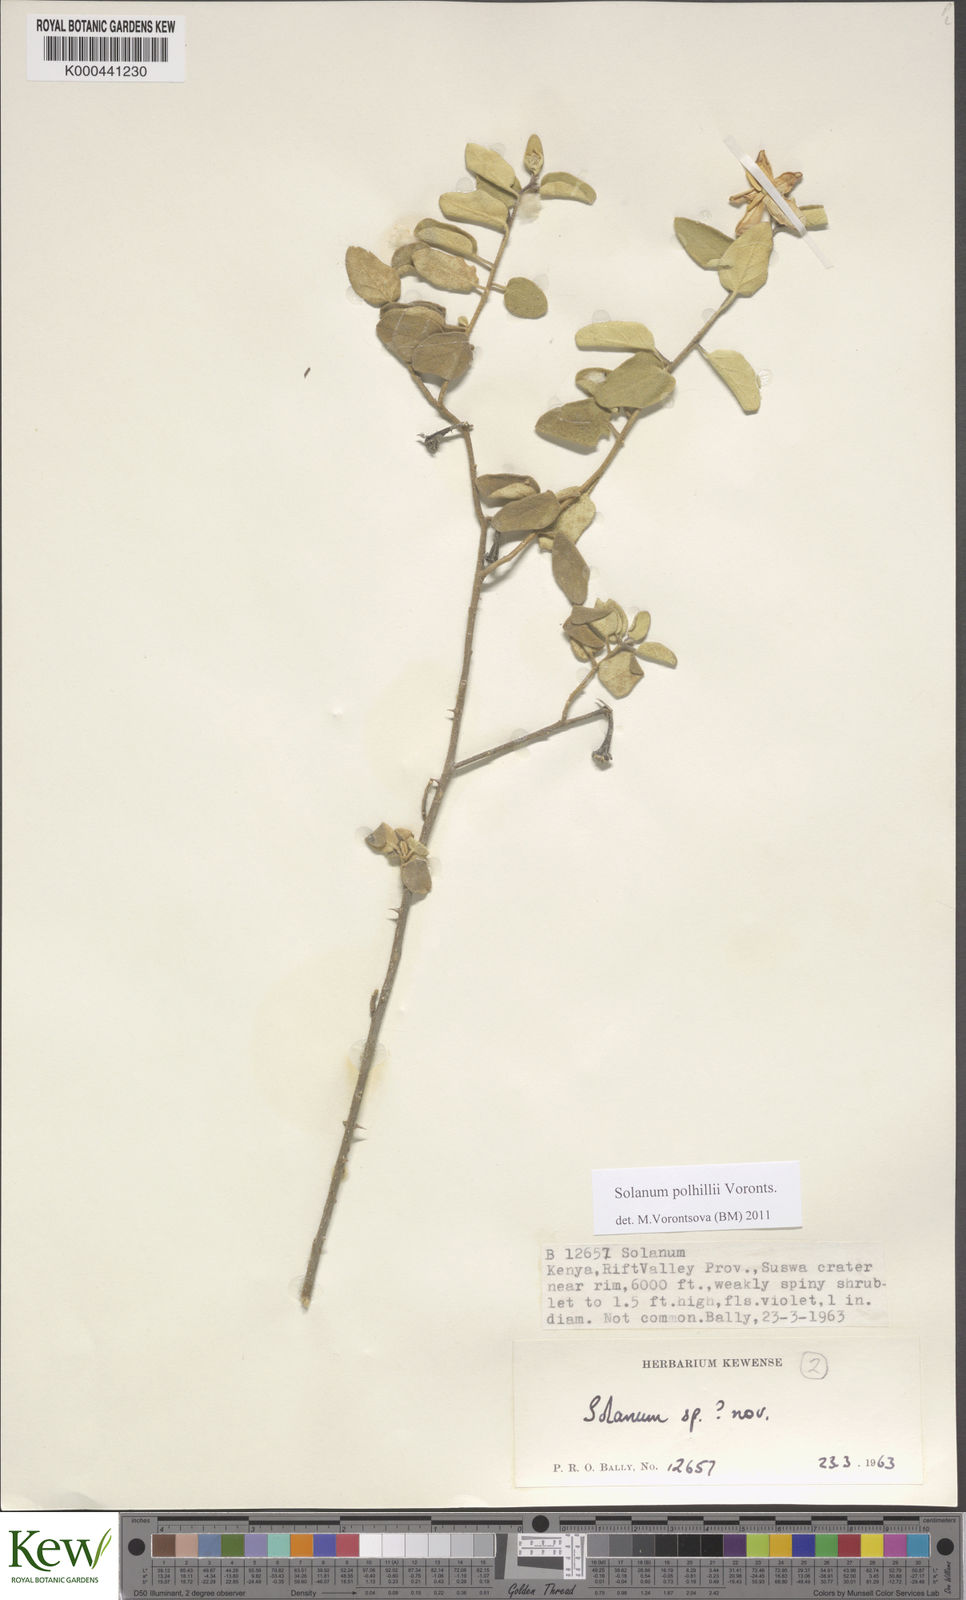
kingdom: Plantae
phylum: Tracheophyta
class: Magnoliopsida
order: Solanales
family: Solanaceae
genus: Solanum
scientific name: Solanum polhillii
